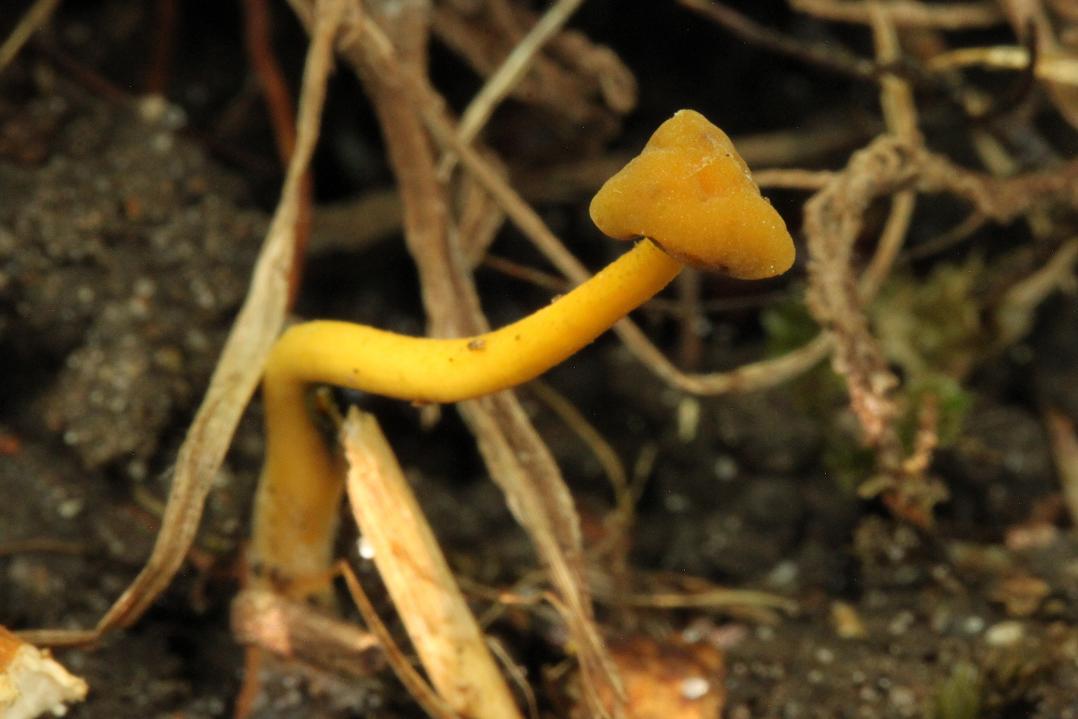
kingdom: Fungi
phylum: Ascomycota
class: Leotiomycetes
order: Leotiales
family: Leotiaceae
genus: Leotia
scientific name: Leotia lubrica
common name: ravsvamp
